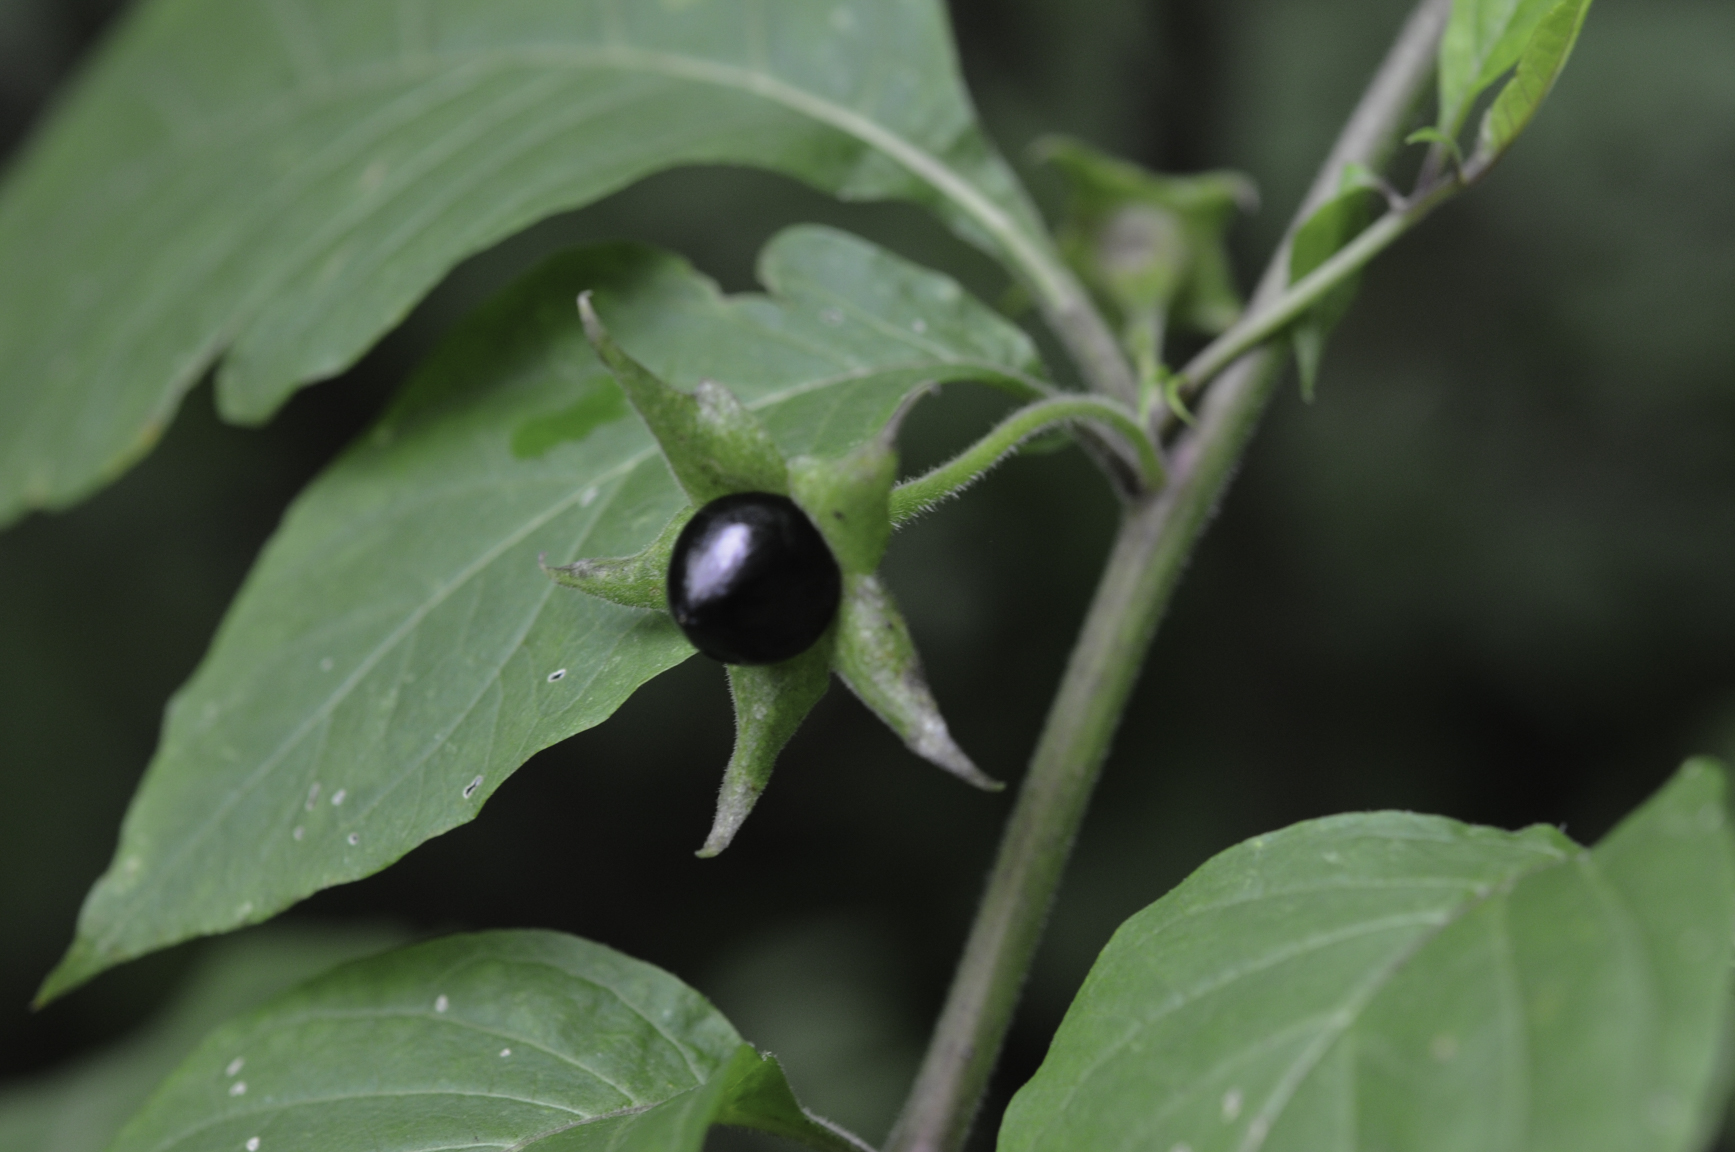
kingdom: Plantae
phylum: Tracheophyta
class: Magnoliopsida
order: Solanales
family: Solanaceae
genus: Atropa
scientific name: Atropa belladonna
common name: Deadly nightshade
